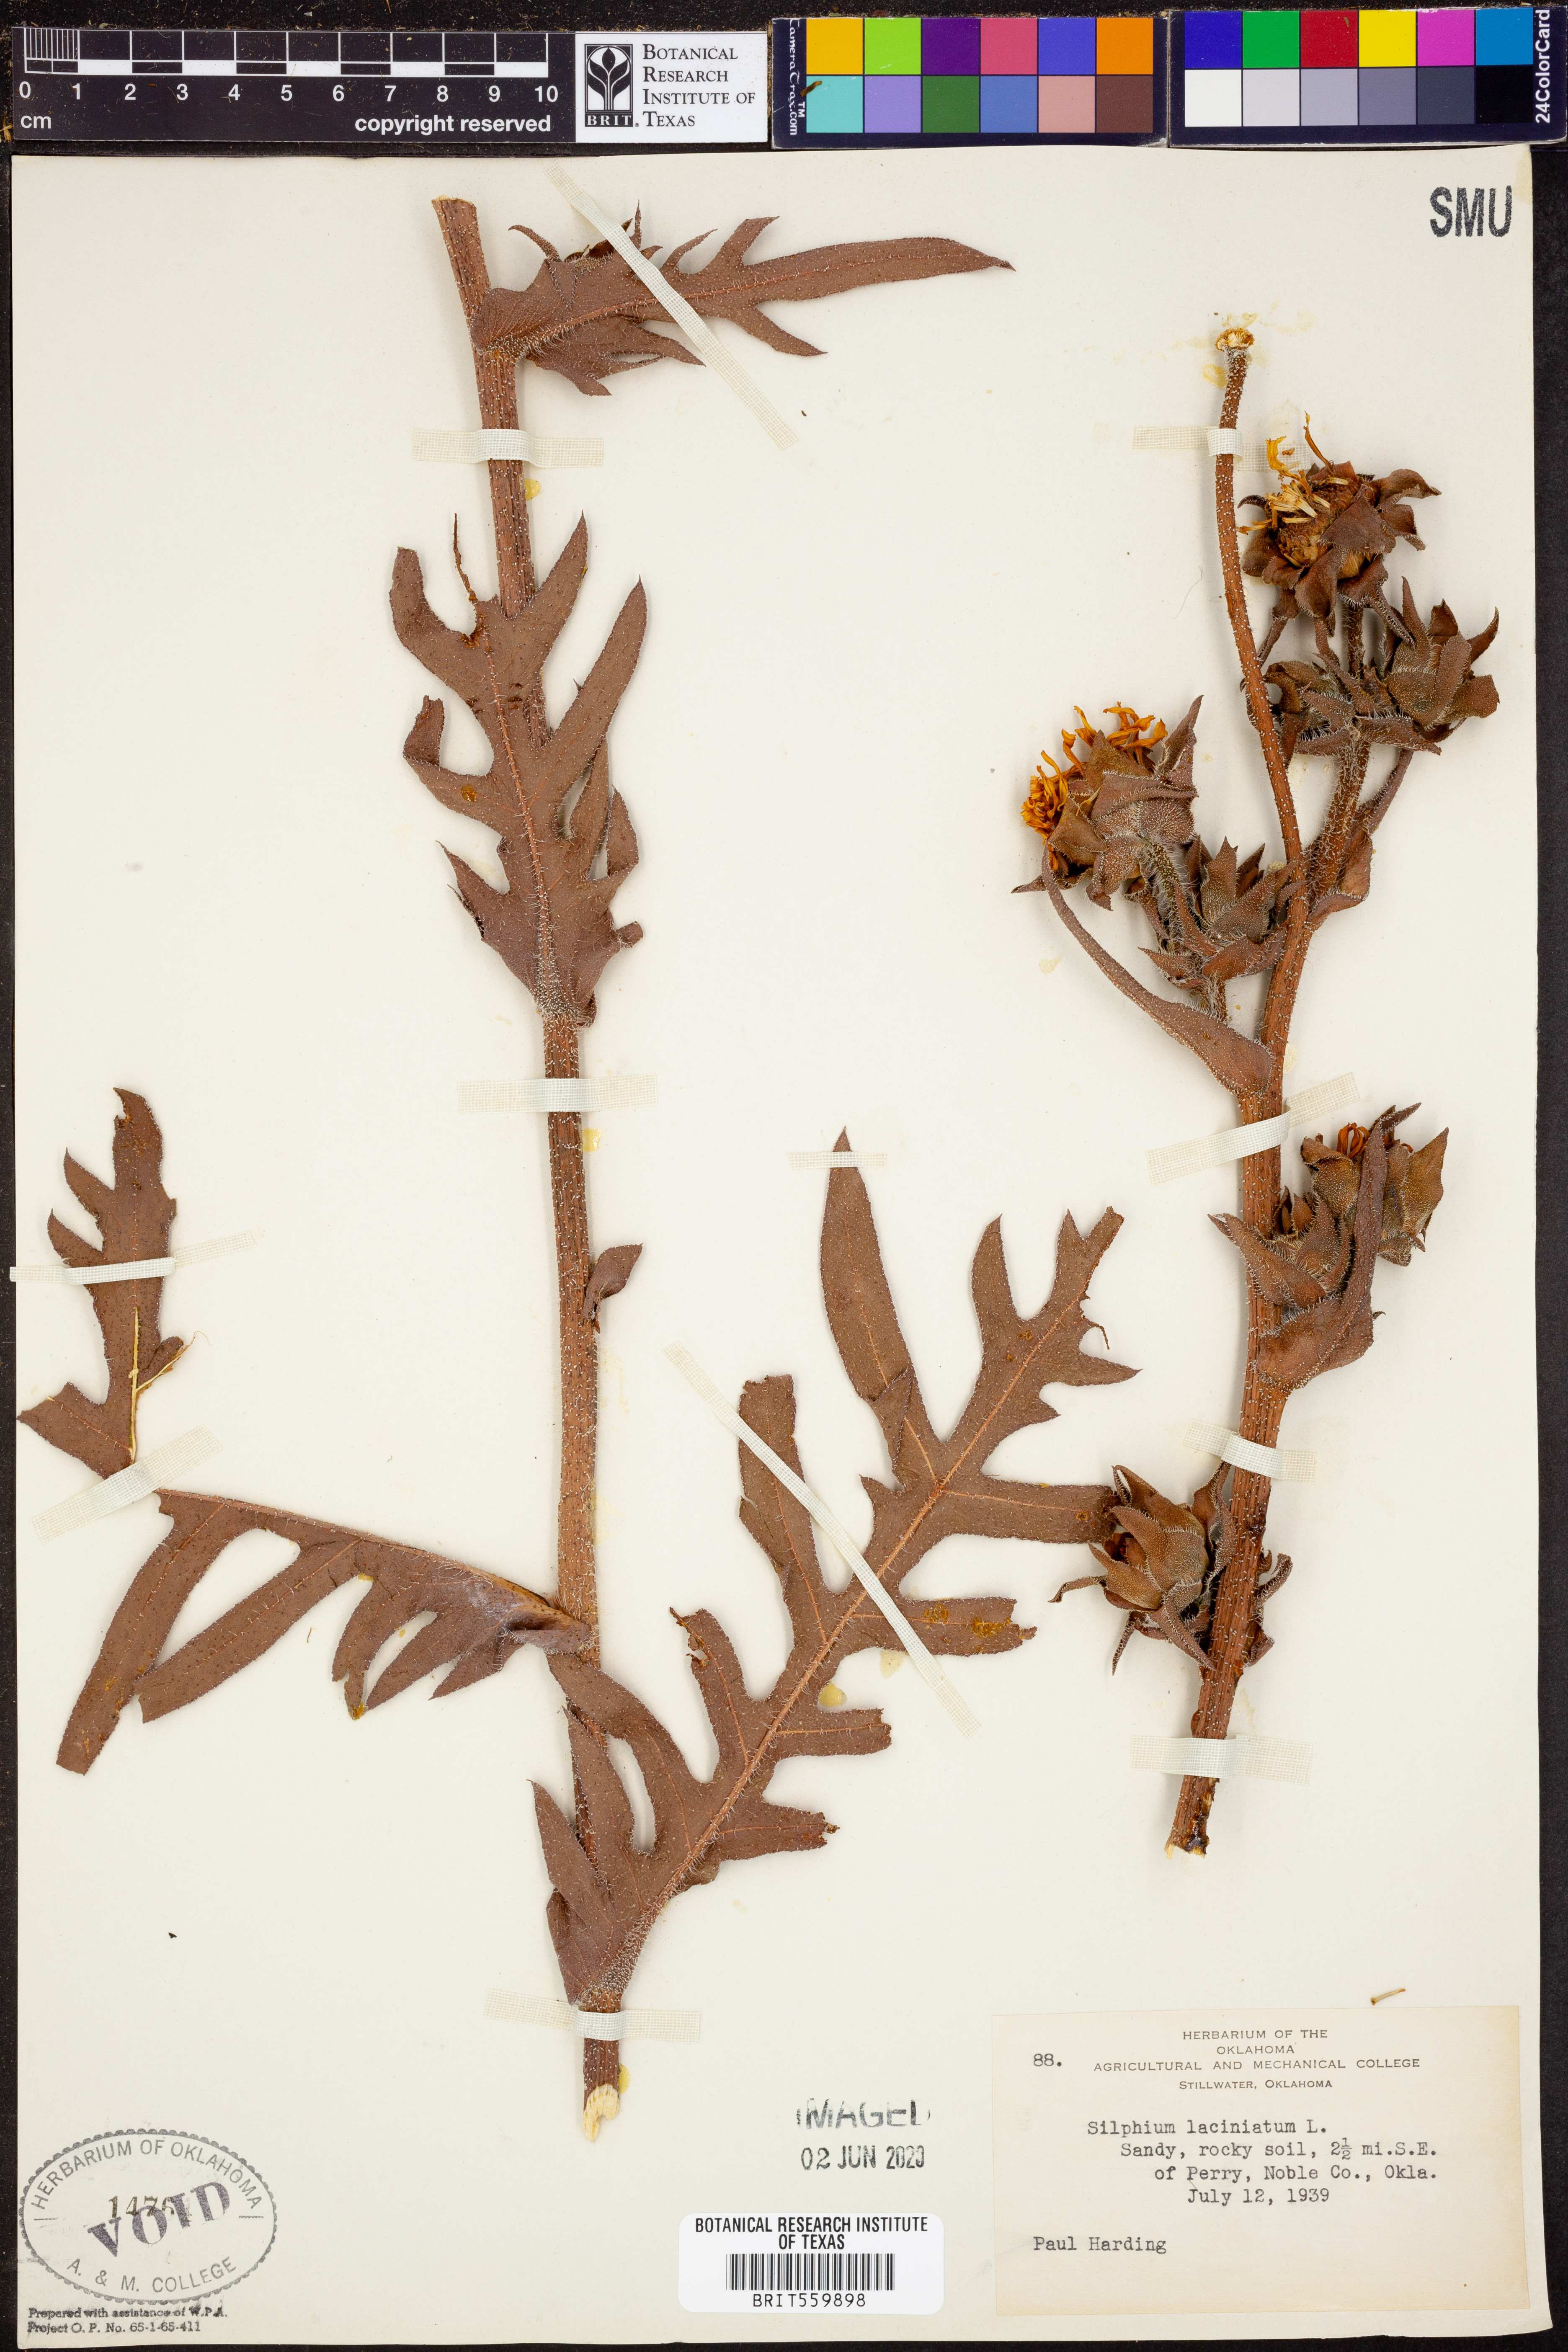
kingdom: Plantae
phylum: Tracheophyta
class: Magnoliopsida
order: Asterales
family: Asteraceae
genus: Silphium
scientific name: Silphium laciniatum
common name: Polarplant
